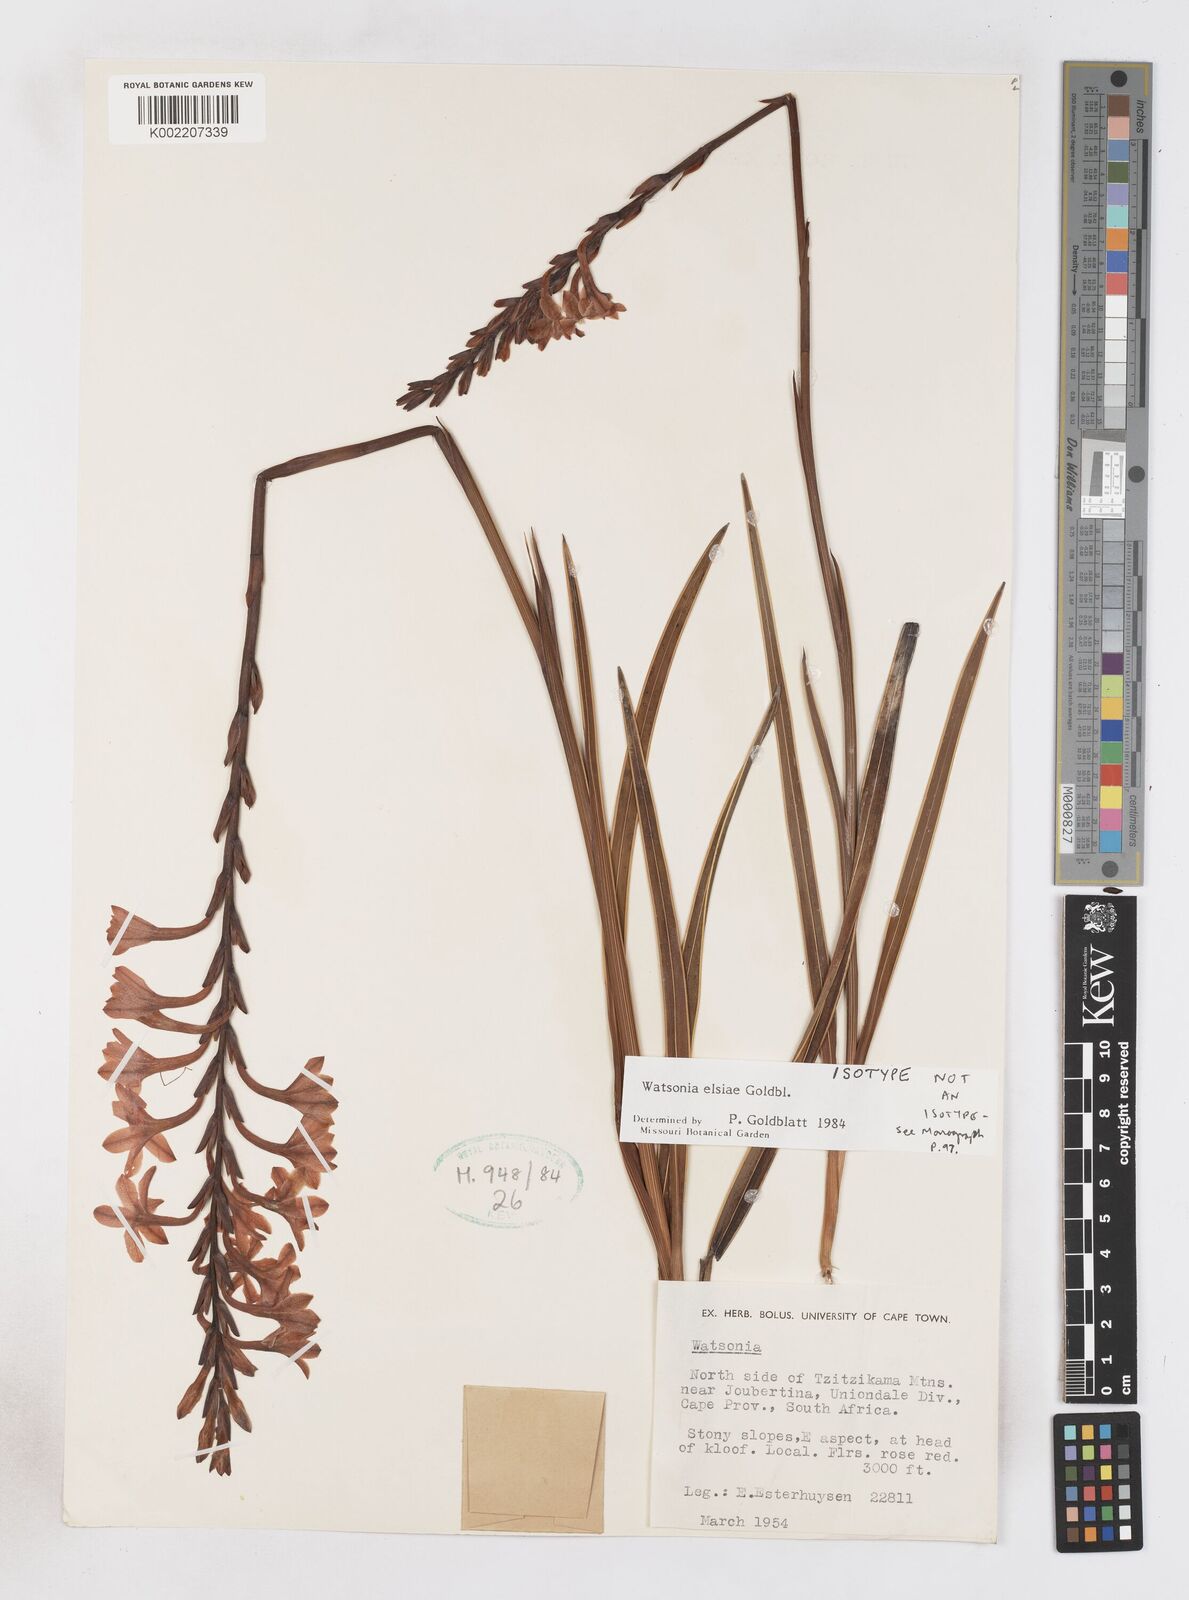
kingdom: Plantae
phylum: Tracheophyta
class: Liliopsida
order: Asparagales
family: Iridaceae
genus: Watsonia
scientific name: Watsonia elsiae
